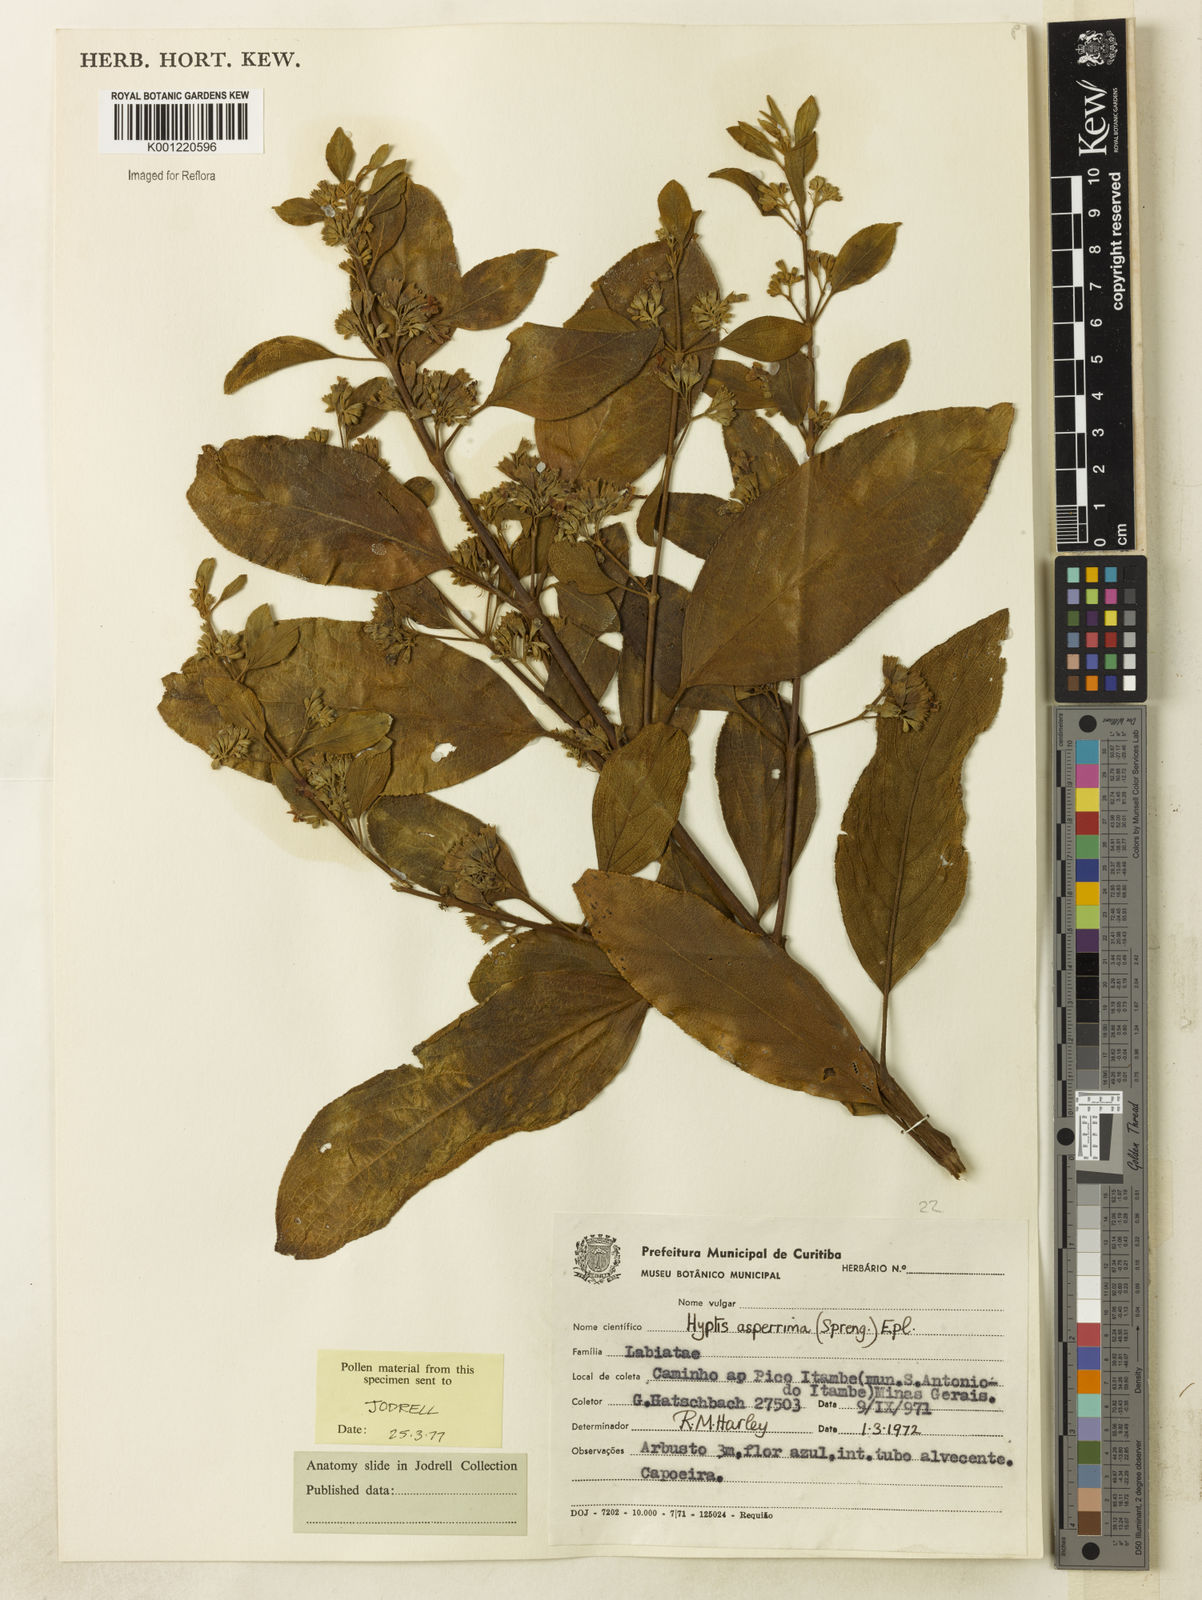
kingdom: Plantae
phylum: Tracheophyta
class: Magnoliopsida
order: Lamiales
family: Lamiaceae
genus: Hyptidendron
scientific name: Hyptidendron asperrimum
